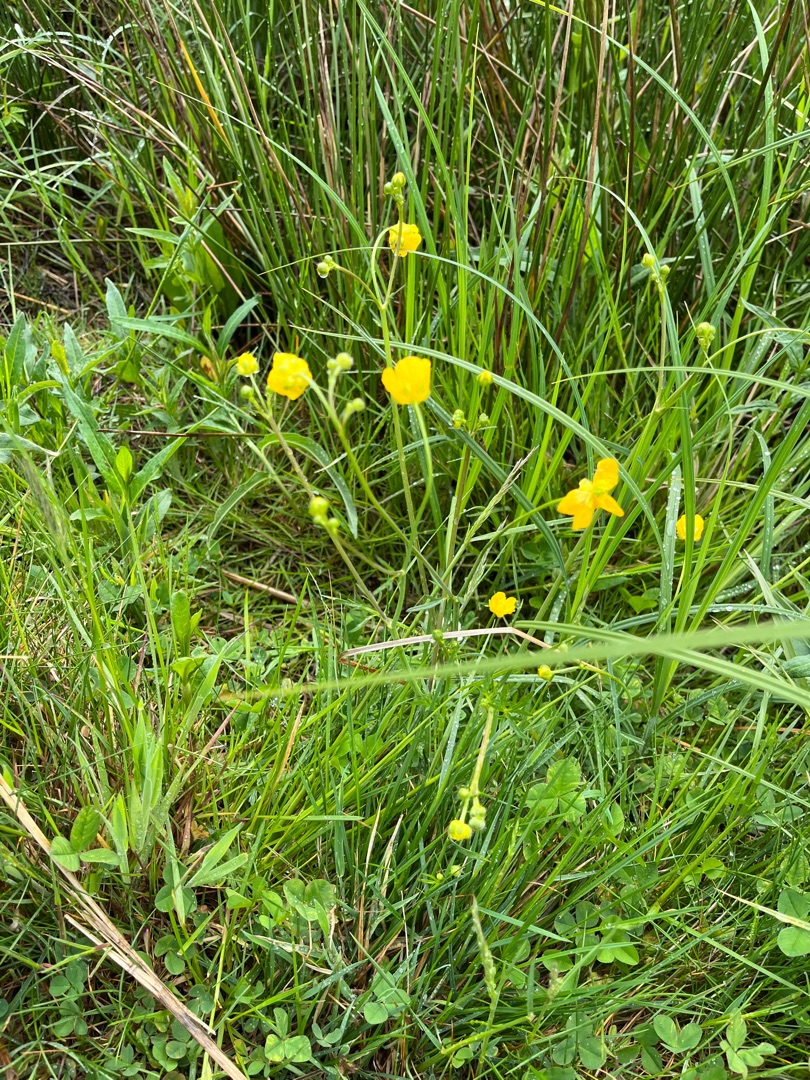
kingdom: Plantae
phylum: Tracheophyta
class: Magnoliopsida
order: Ranunculales
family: Ranunculaceae
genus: Ranunculus
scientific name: Ranunculus acris
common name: Bidende ranunkel
